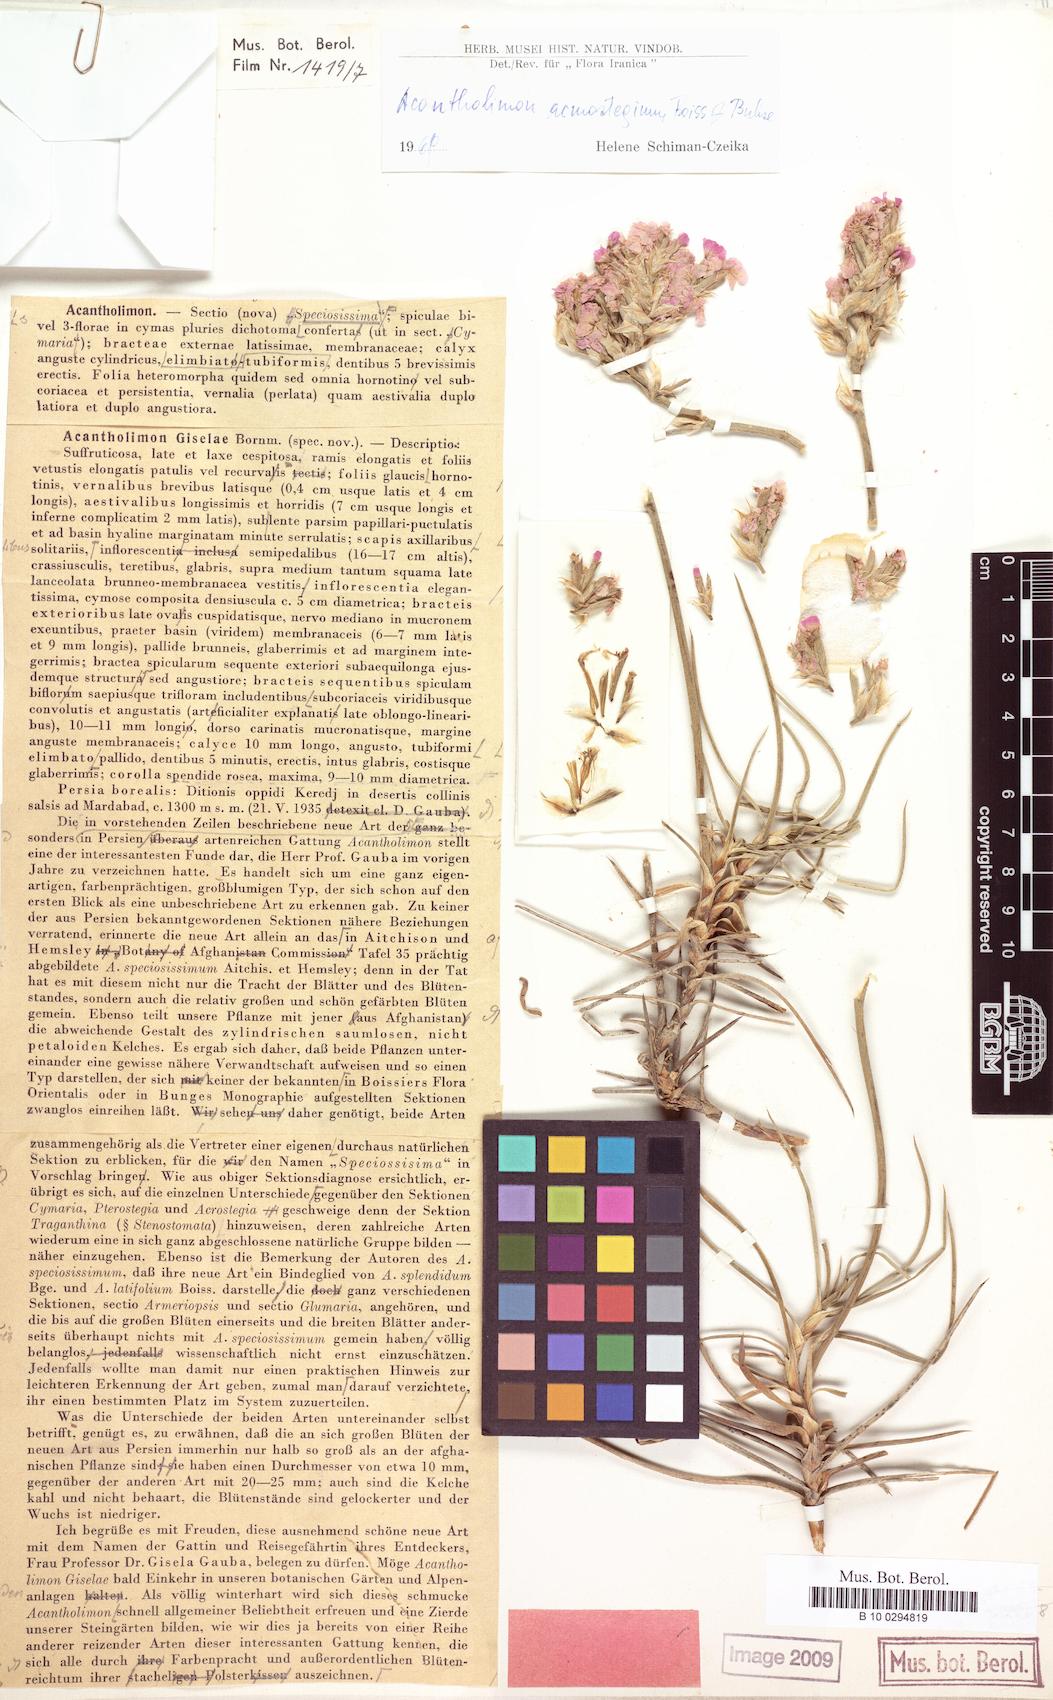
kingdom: Plantae
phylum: Tracheophyta
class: Magnoliopsida
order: Caryophyllales
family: Plumbaginaceae
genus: Acantholimon
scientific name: Acantholimon acmostegium
